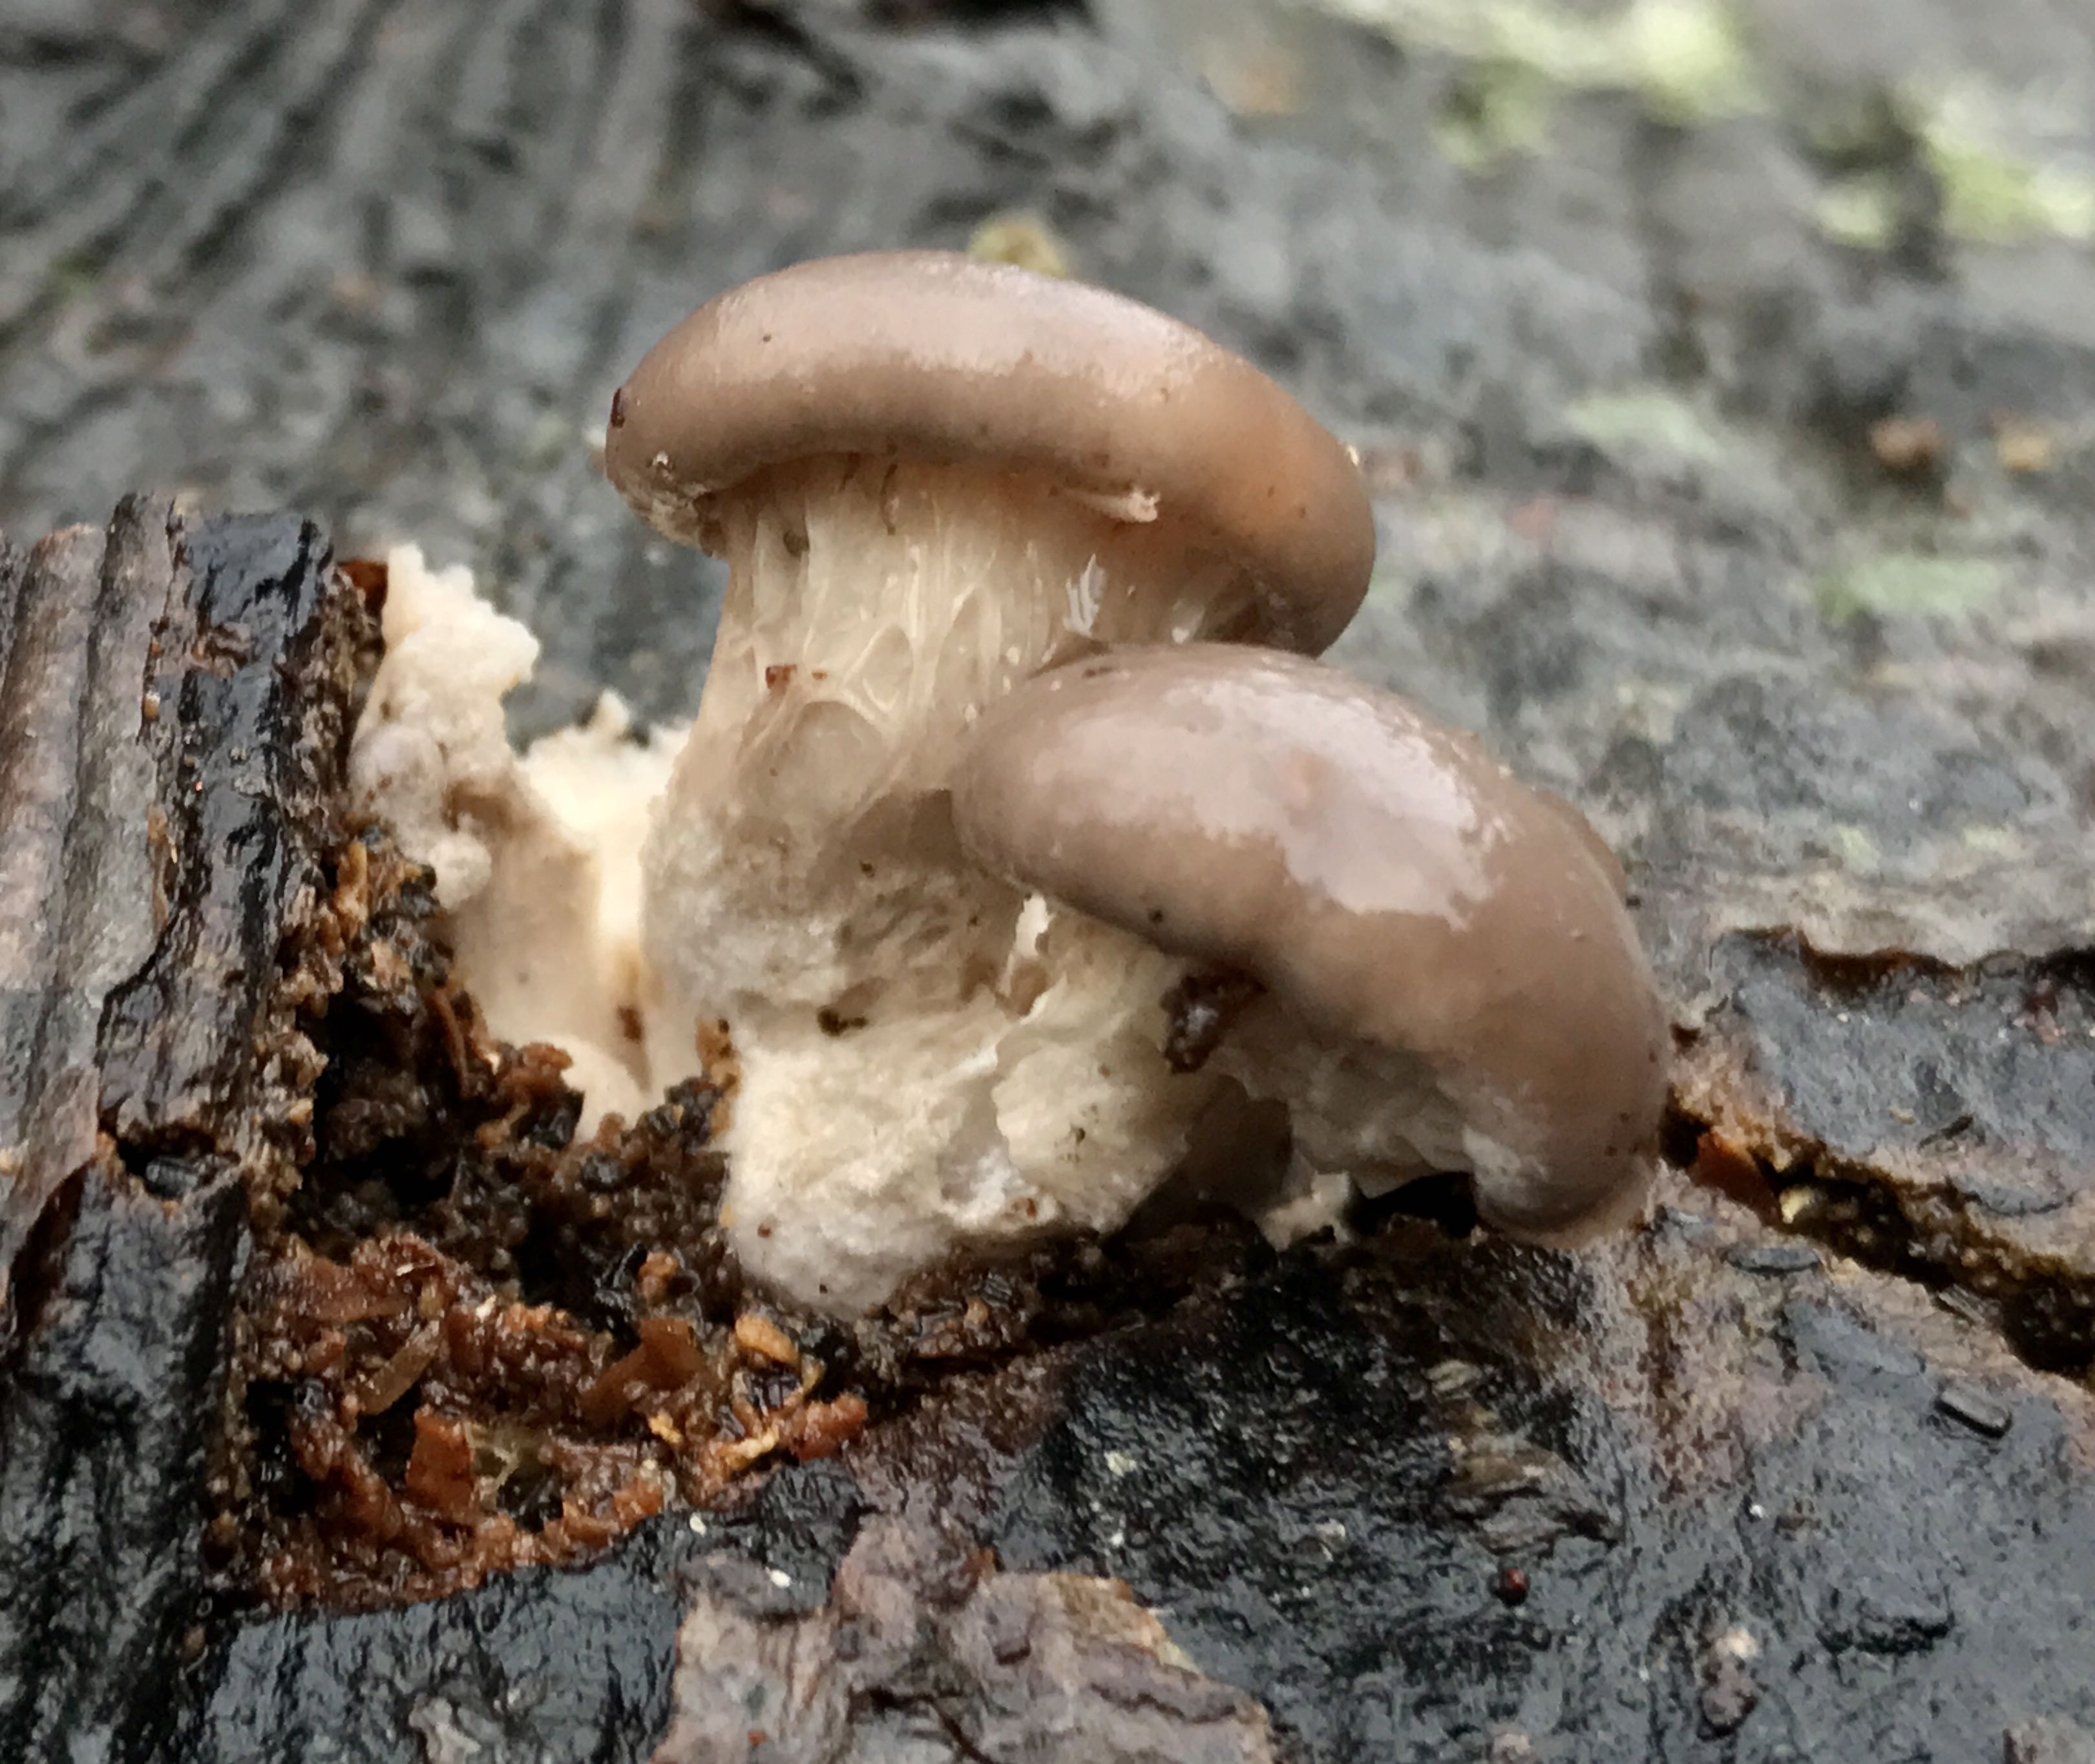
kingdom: Fungi
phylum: Basidiomycota
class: Agaricomycetes
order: Agaricales
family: Pleurotaceae
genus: Pleurotus
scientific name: Pleurotus ostreatus
